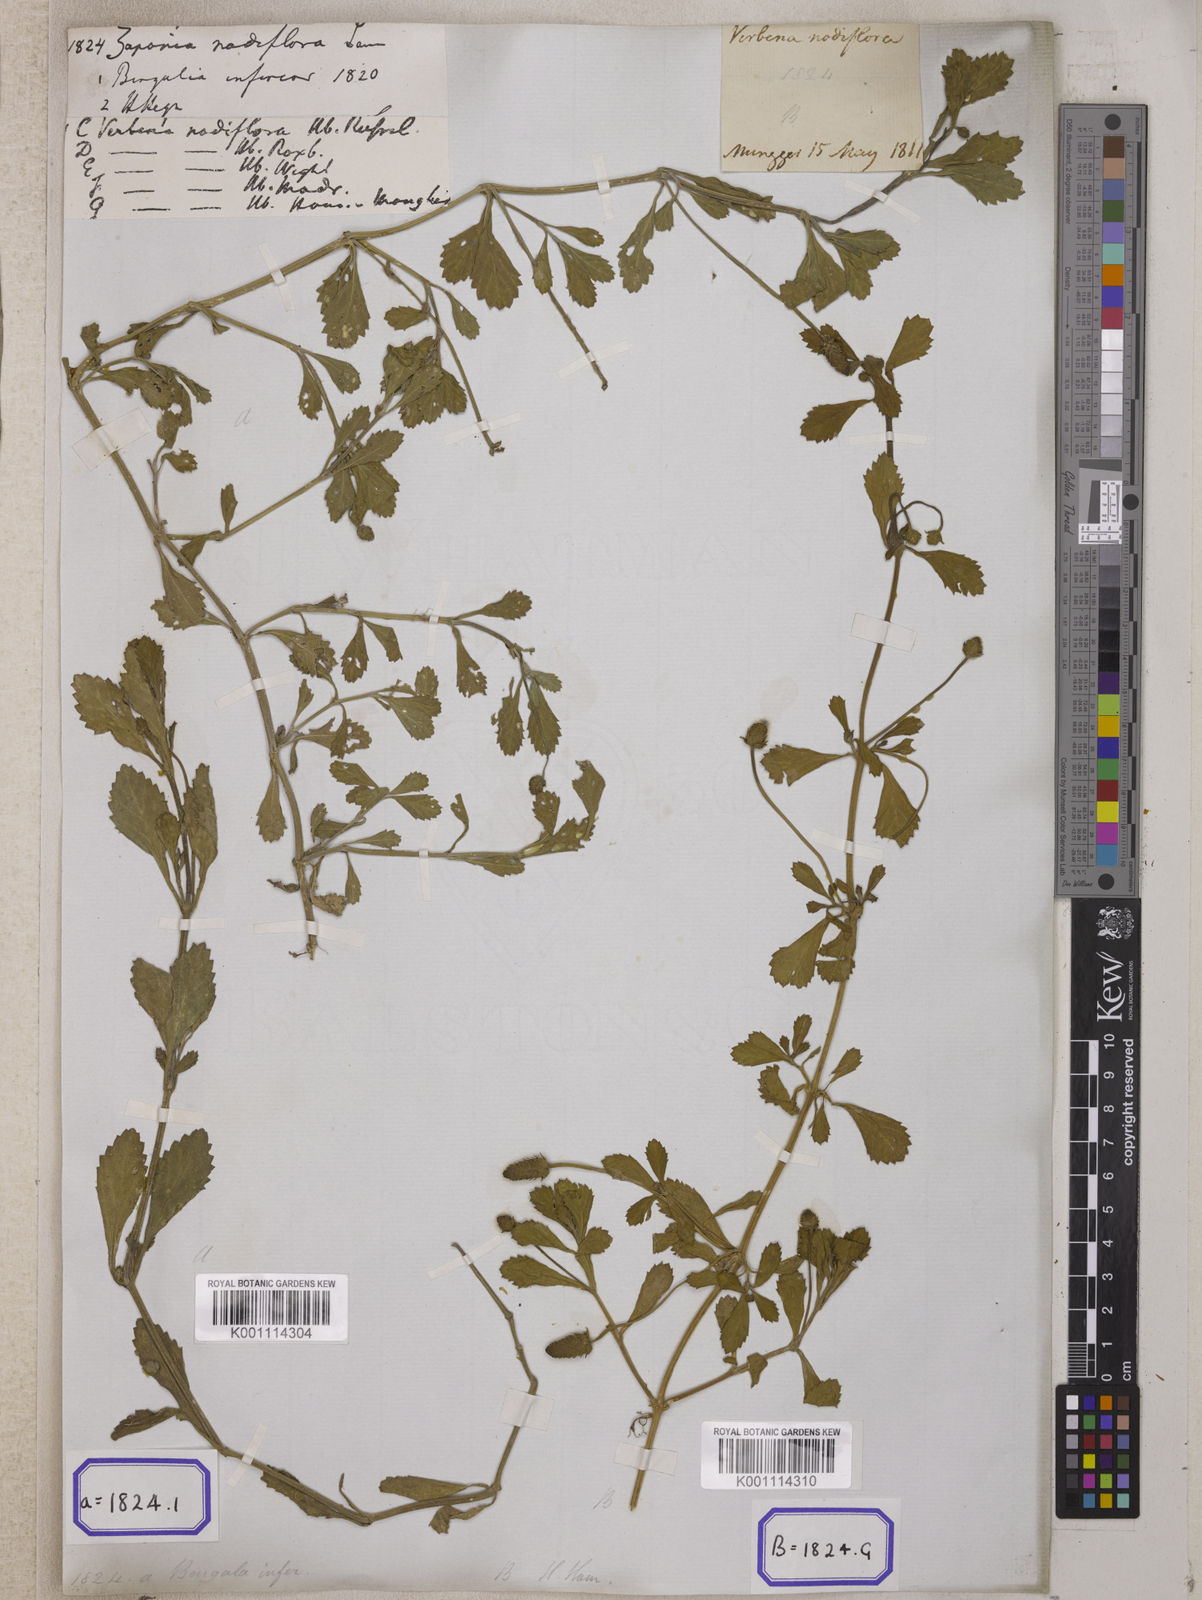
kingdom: Plantae
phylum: Tracheophyta
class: Magnoliopsida
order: Lamiales
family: Verbenaceae
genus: Phyla
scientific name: Phyla nodiflora
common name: Frogfruit
